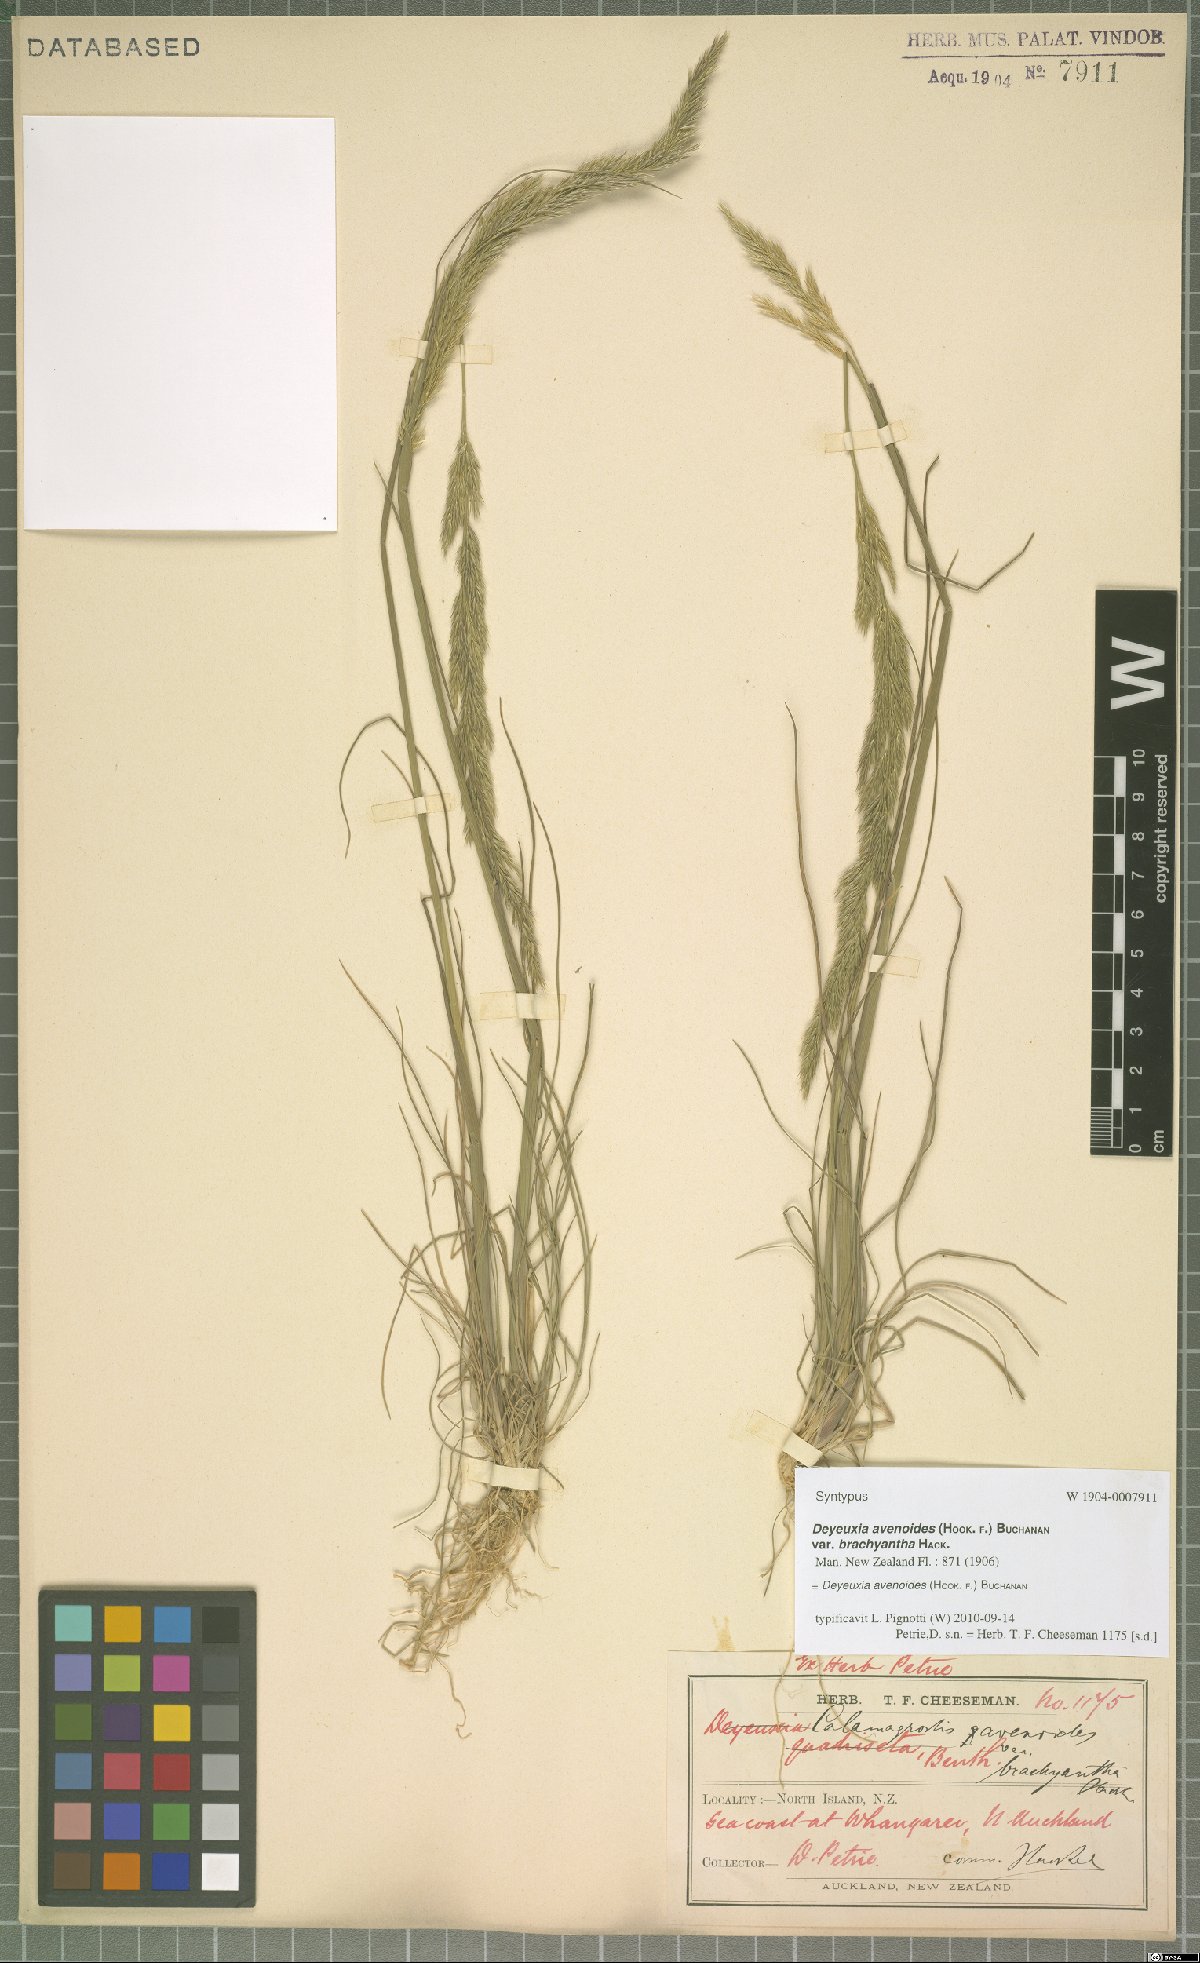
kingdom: Plantae
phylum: Tracheophyta
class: Liliopsida
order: Poales
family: Poaceae
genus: Calamagrostis
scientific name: Calamagrostis avenoides
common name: Mountain oat grass
